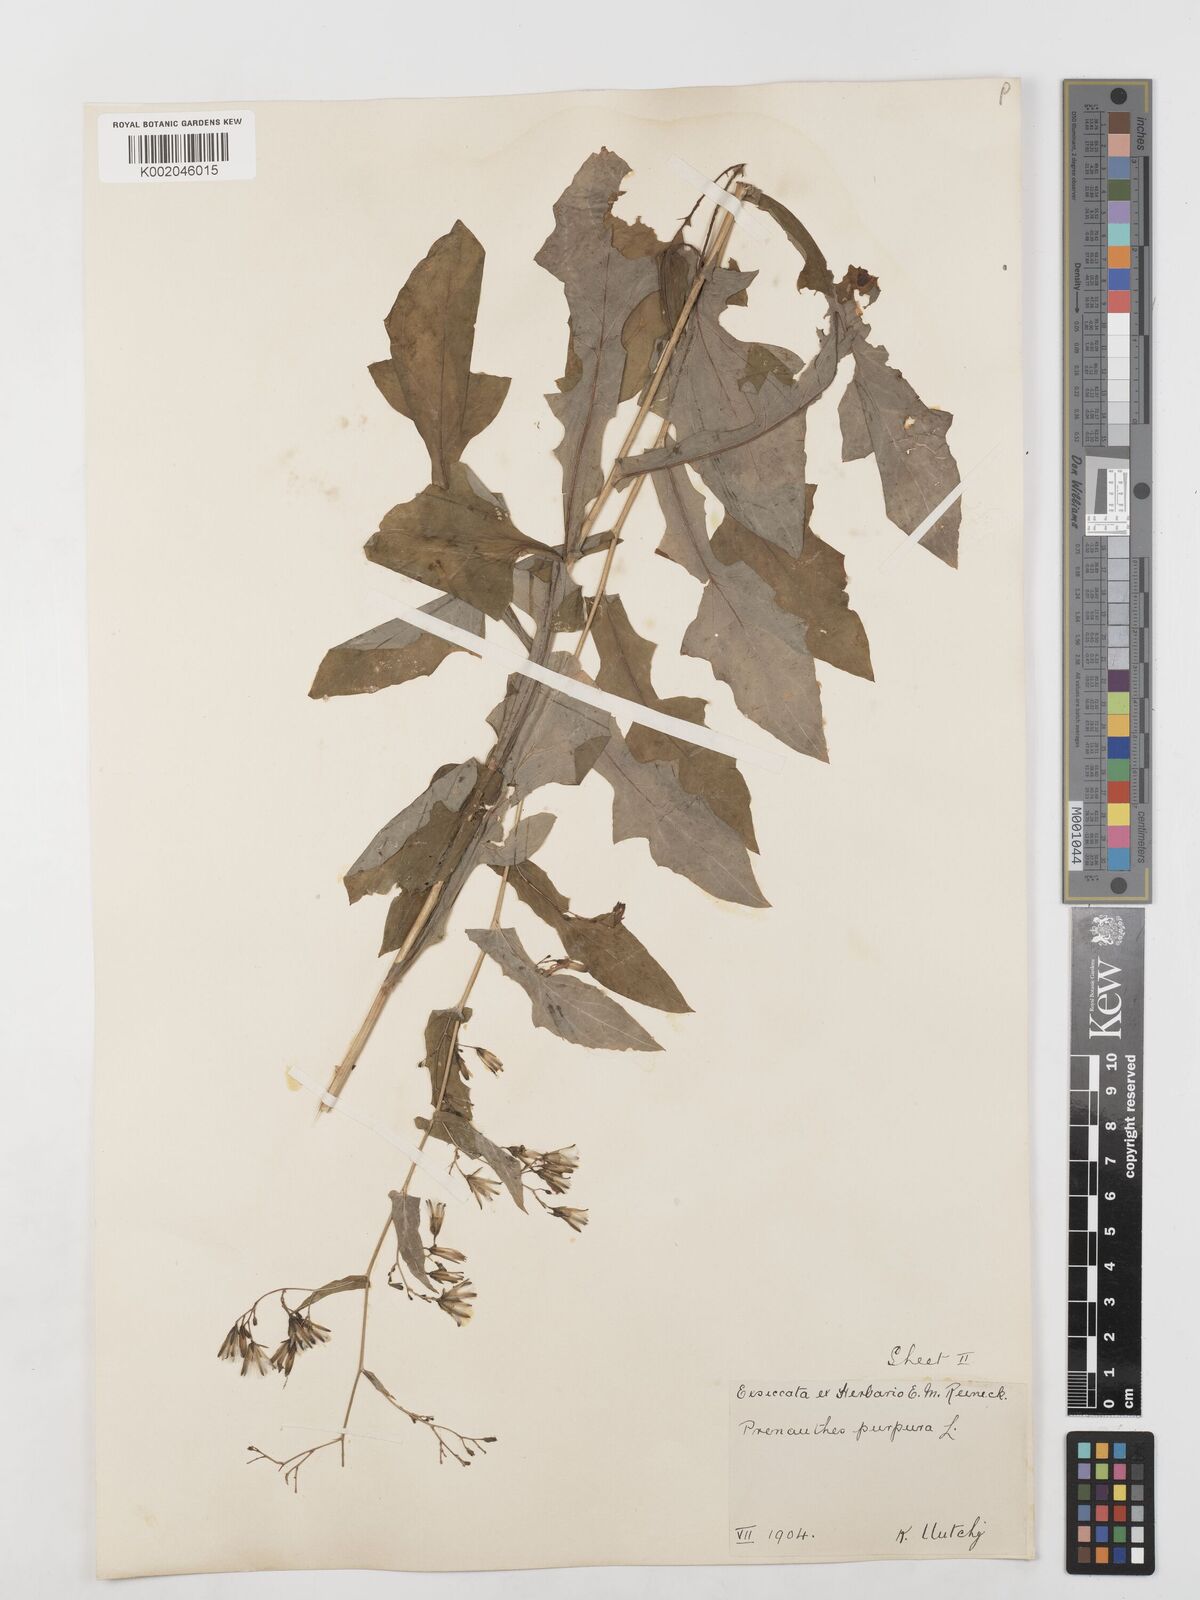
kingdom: Plantae
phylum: Tracheophyta
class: Magnoliopsida
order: Asterales
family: Asteraceae
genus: Prenanthes
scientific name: Prenanthes purpurea
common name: Purple lettuce
